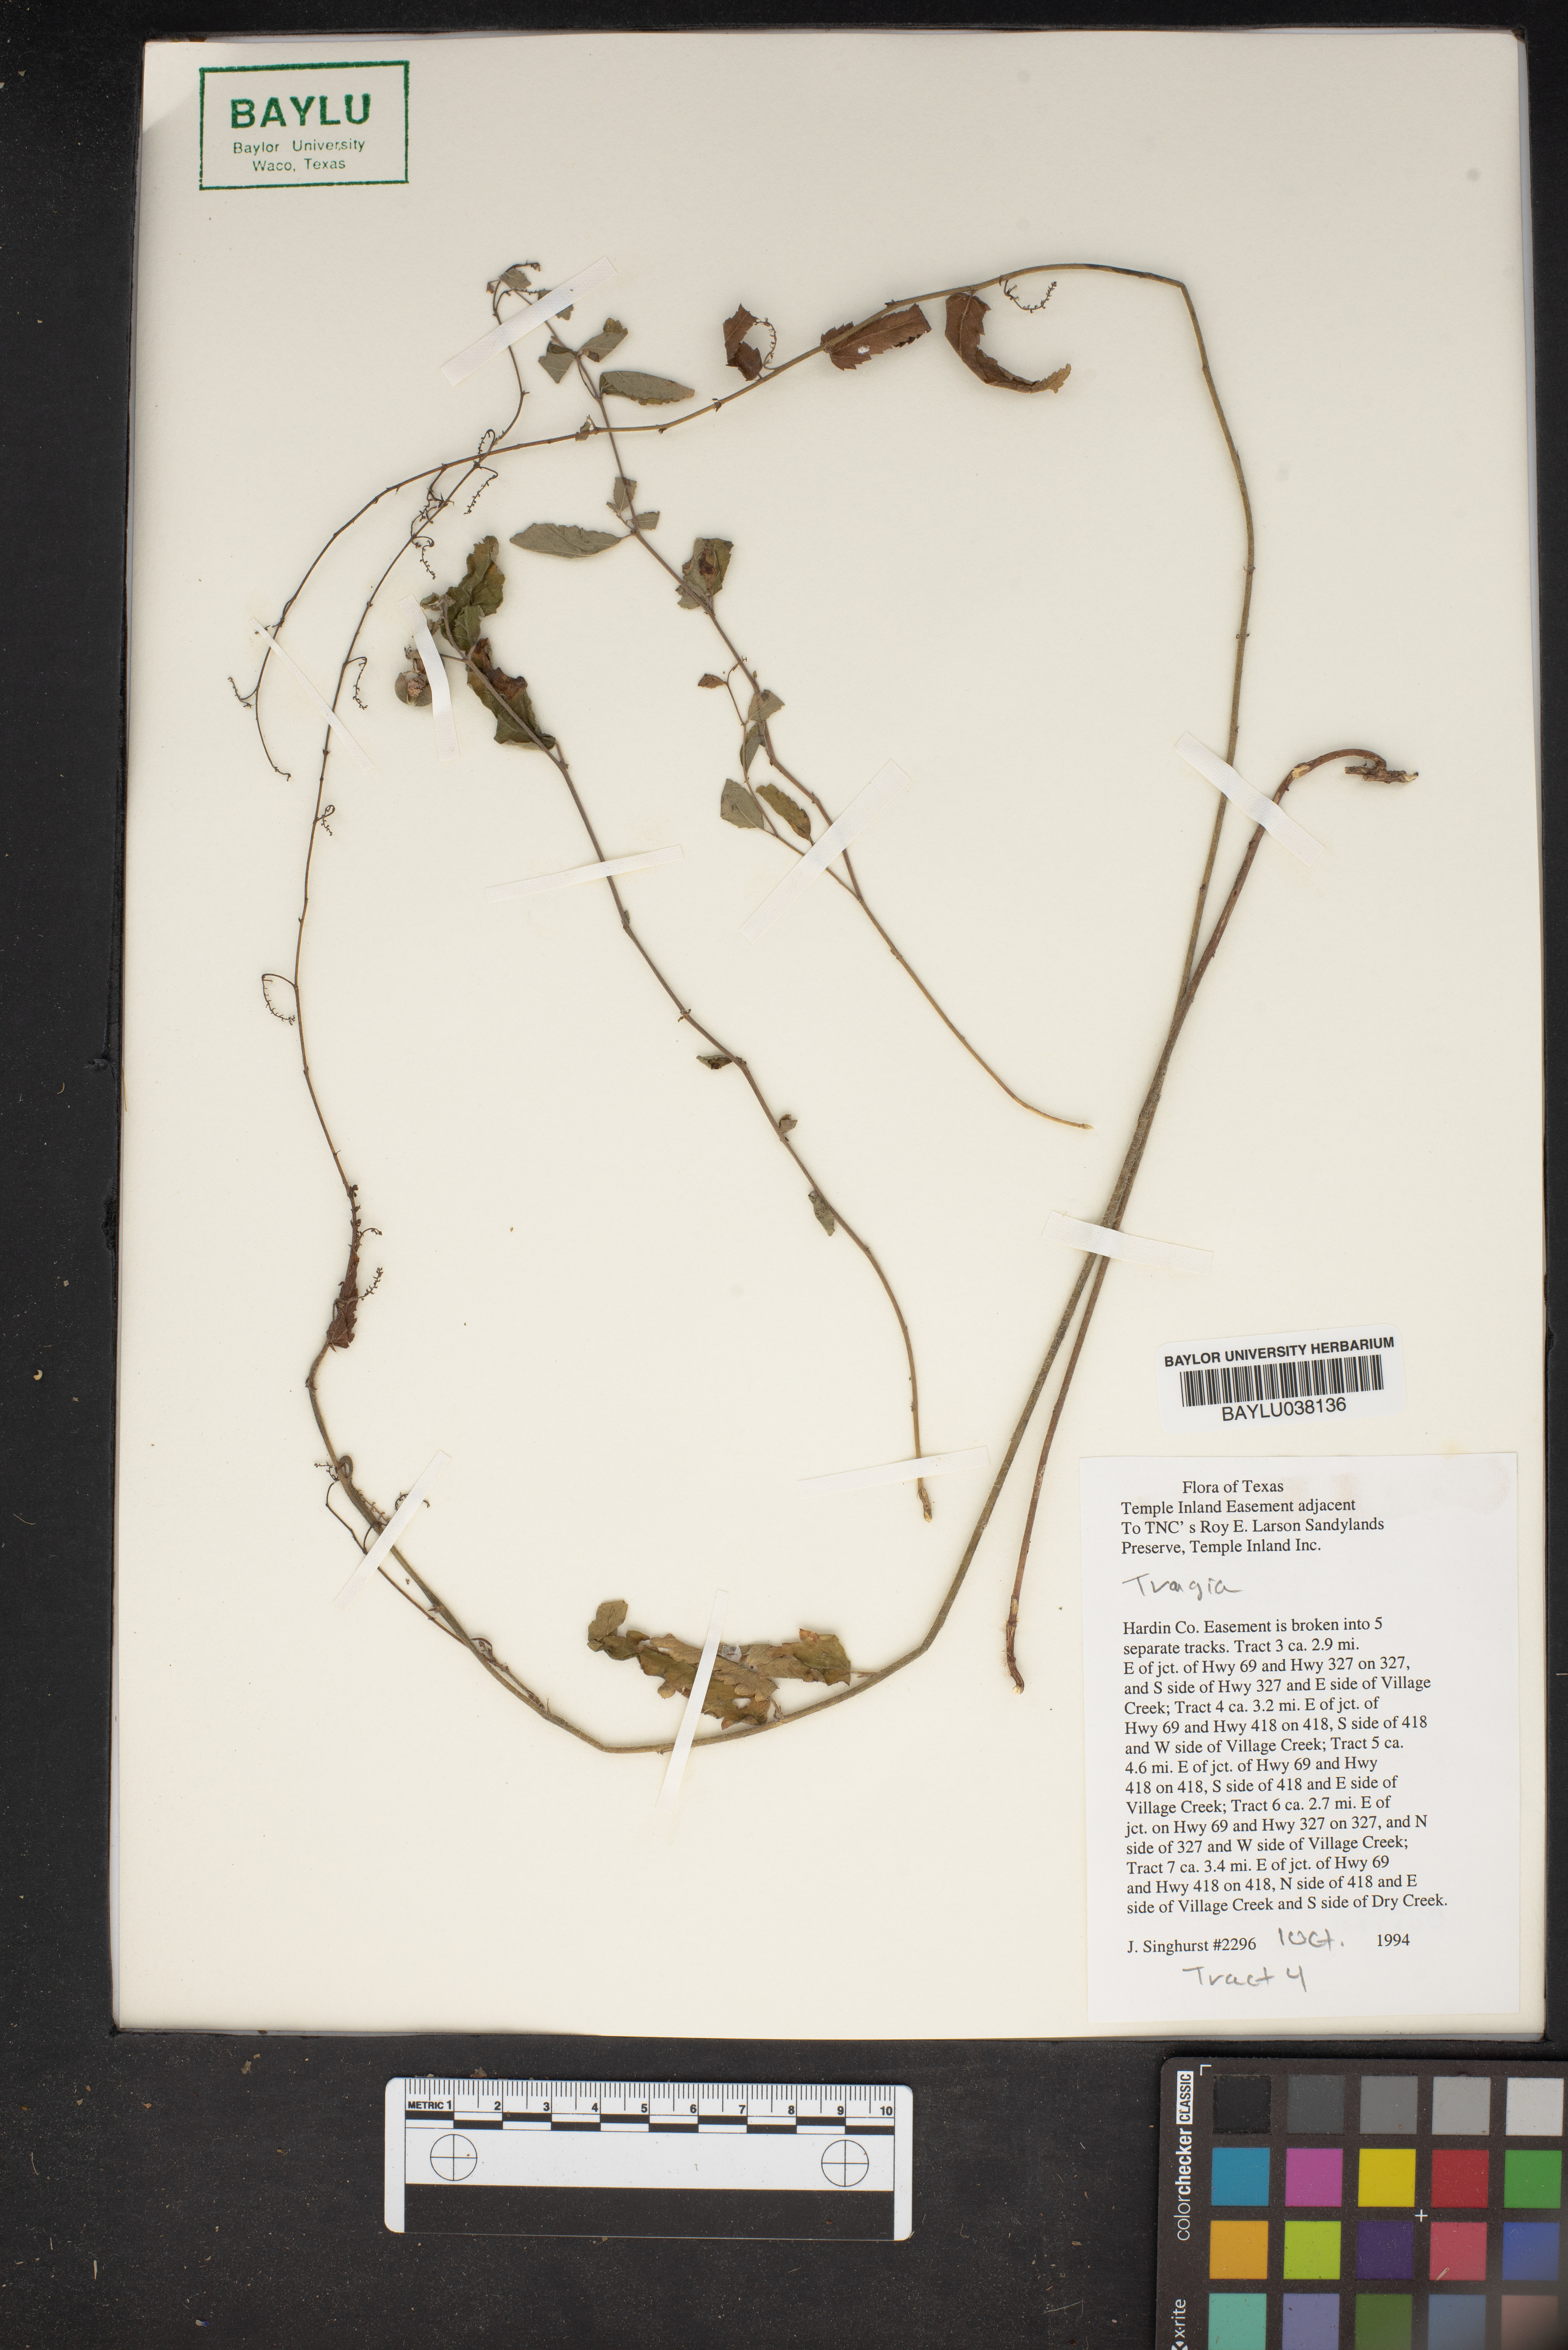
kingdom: Plantae
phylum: Tracheophyta
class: Magnoliopsida
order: Malpighiales
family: Euphorbiaceae
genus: Tragia
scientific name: Tragia
